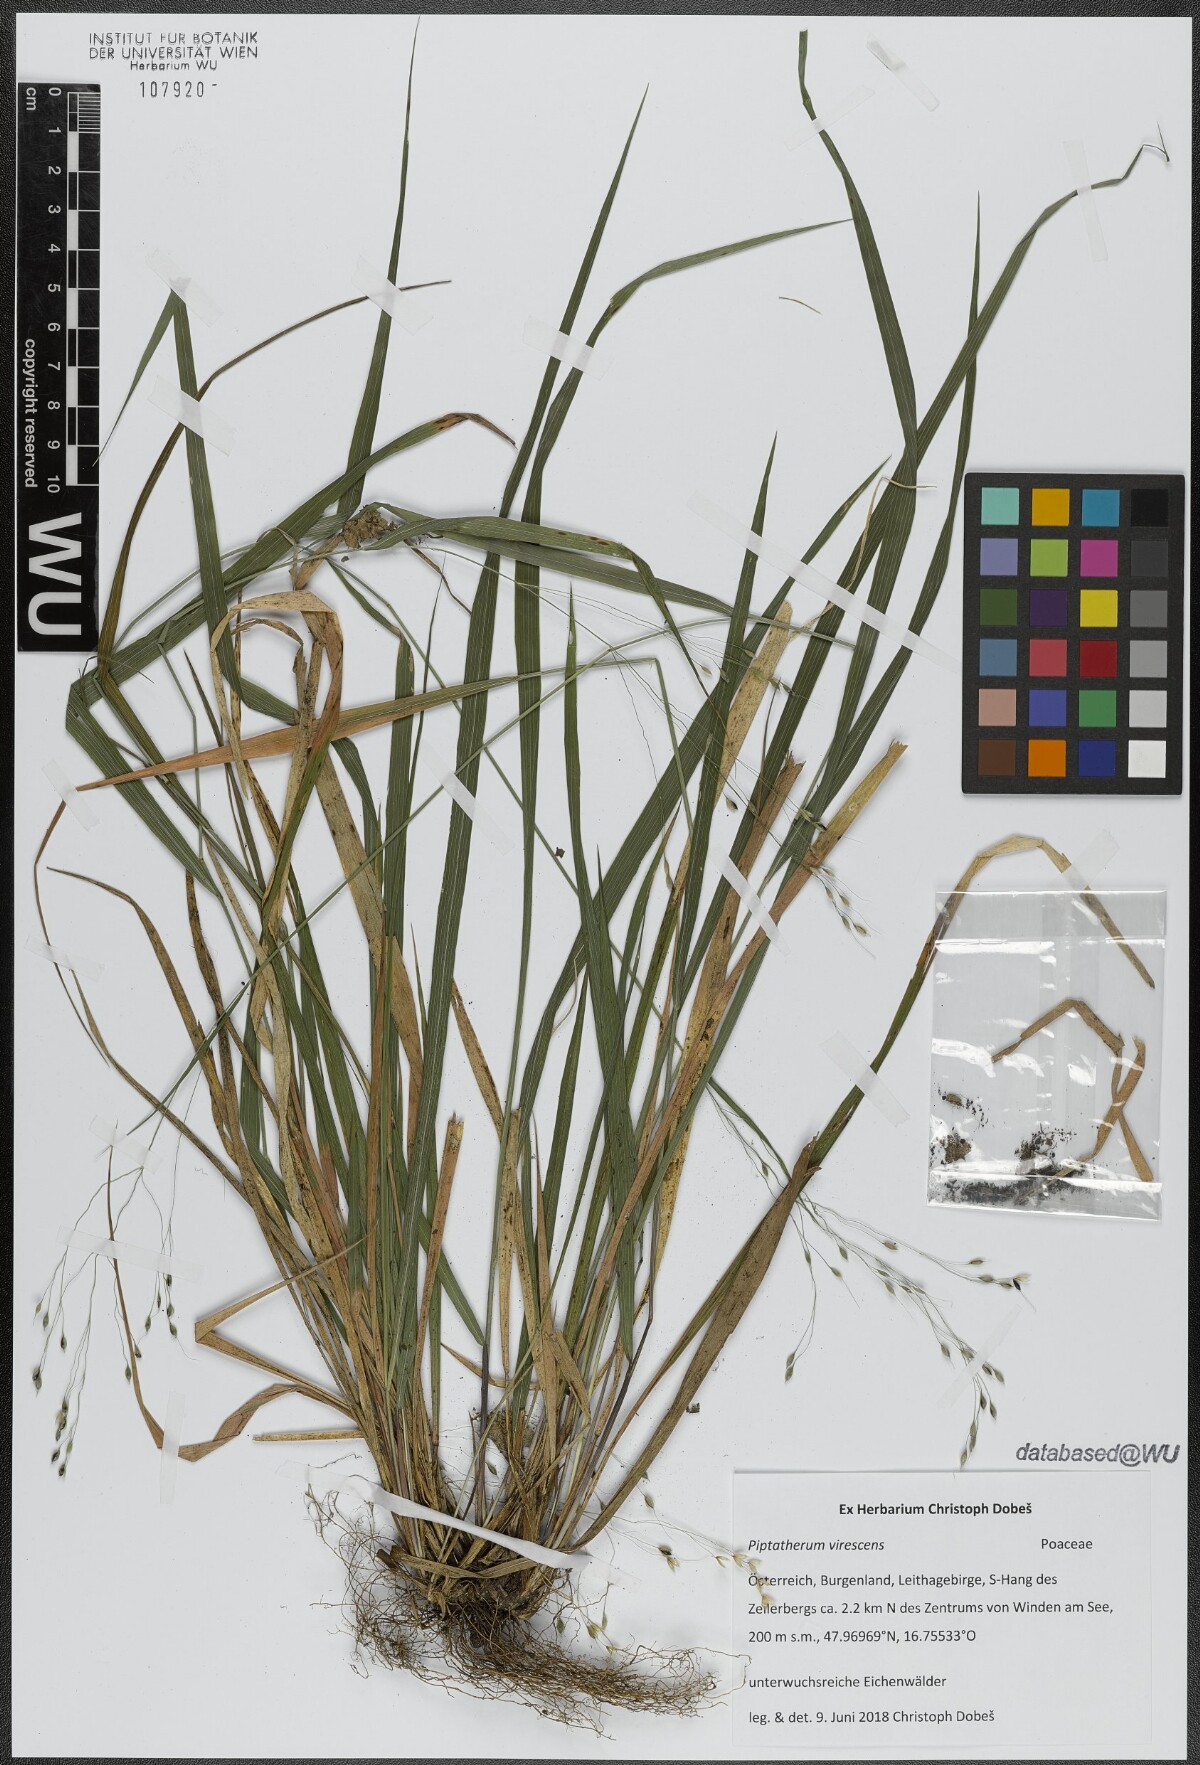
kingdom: Plantae
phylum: Tracheophyta
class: Liliopsida
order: Poales
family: Poaceae
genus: Achnatherum
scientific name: Achnatherum virescens
